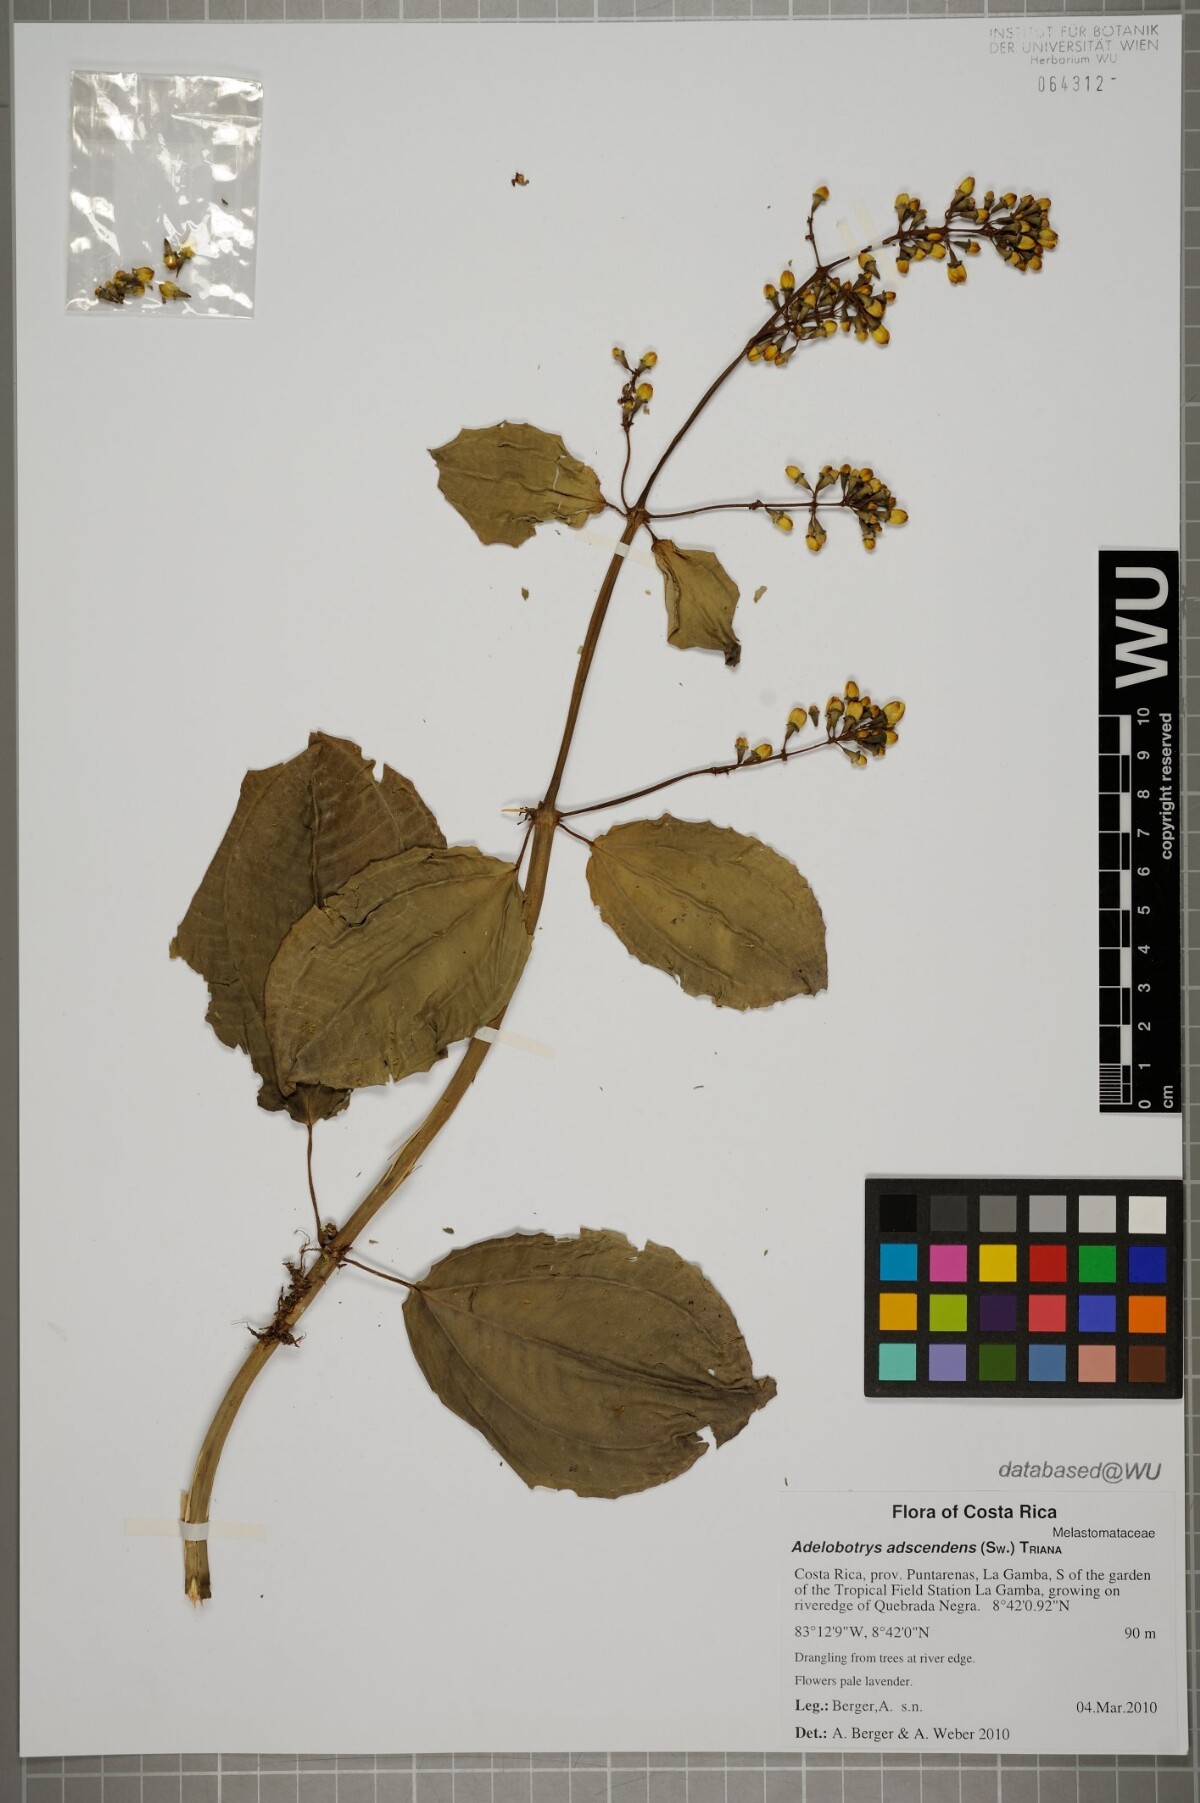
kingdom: Plantae
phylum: Tracheophyta
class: Magnoliopsida
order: Myrtales
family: Melastomataceae
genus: Adelobotrys
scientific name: Adelobotrys adscendens
